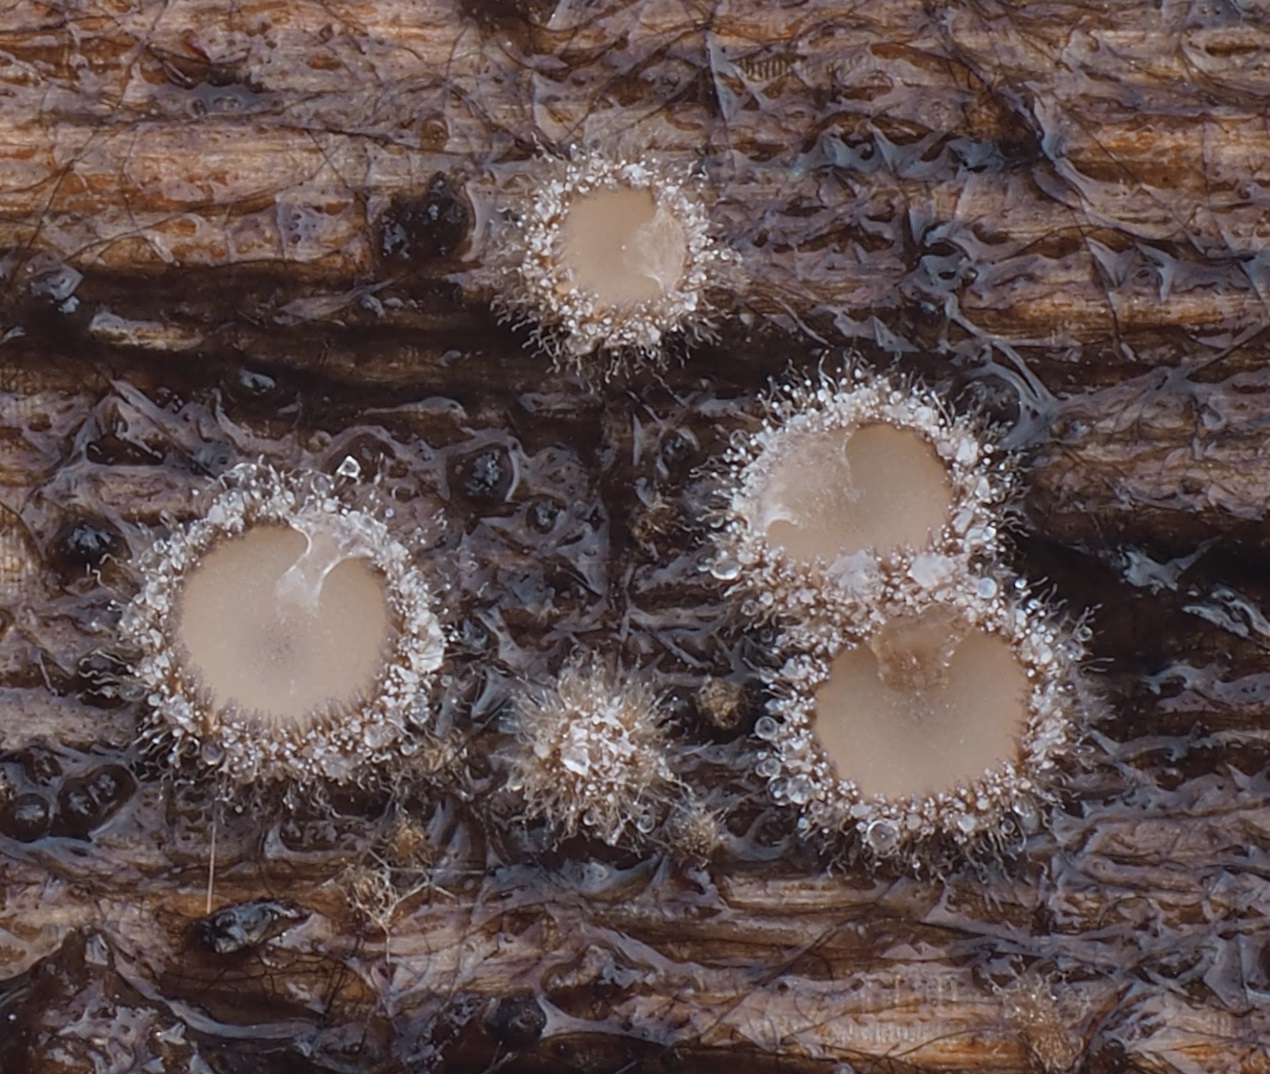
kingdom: Fungi
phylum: Ascomycota
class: Leotiomycetes
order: Helotiales
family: Solenopeziaceae
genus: Lasiobelonium
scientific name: Lasiobelonium variegatum
